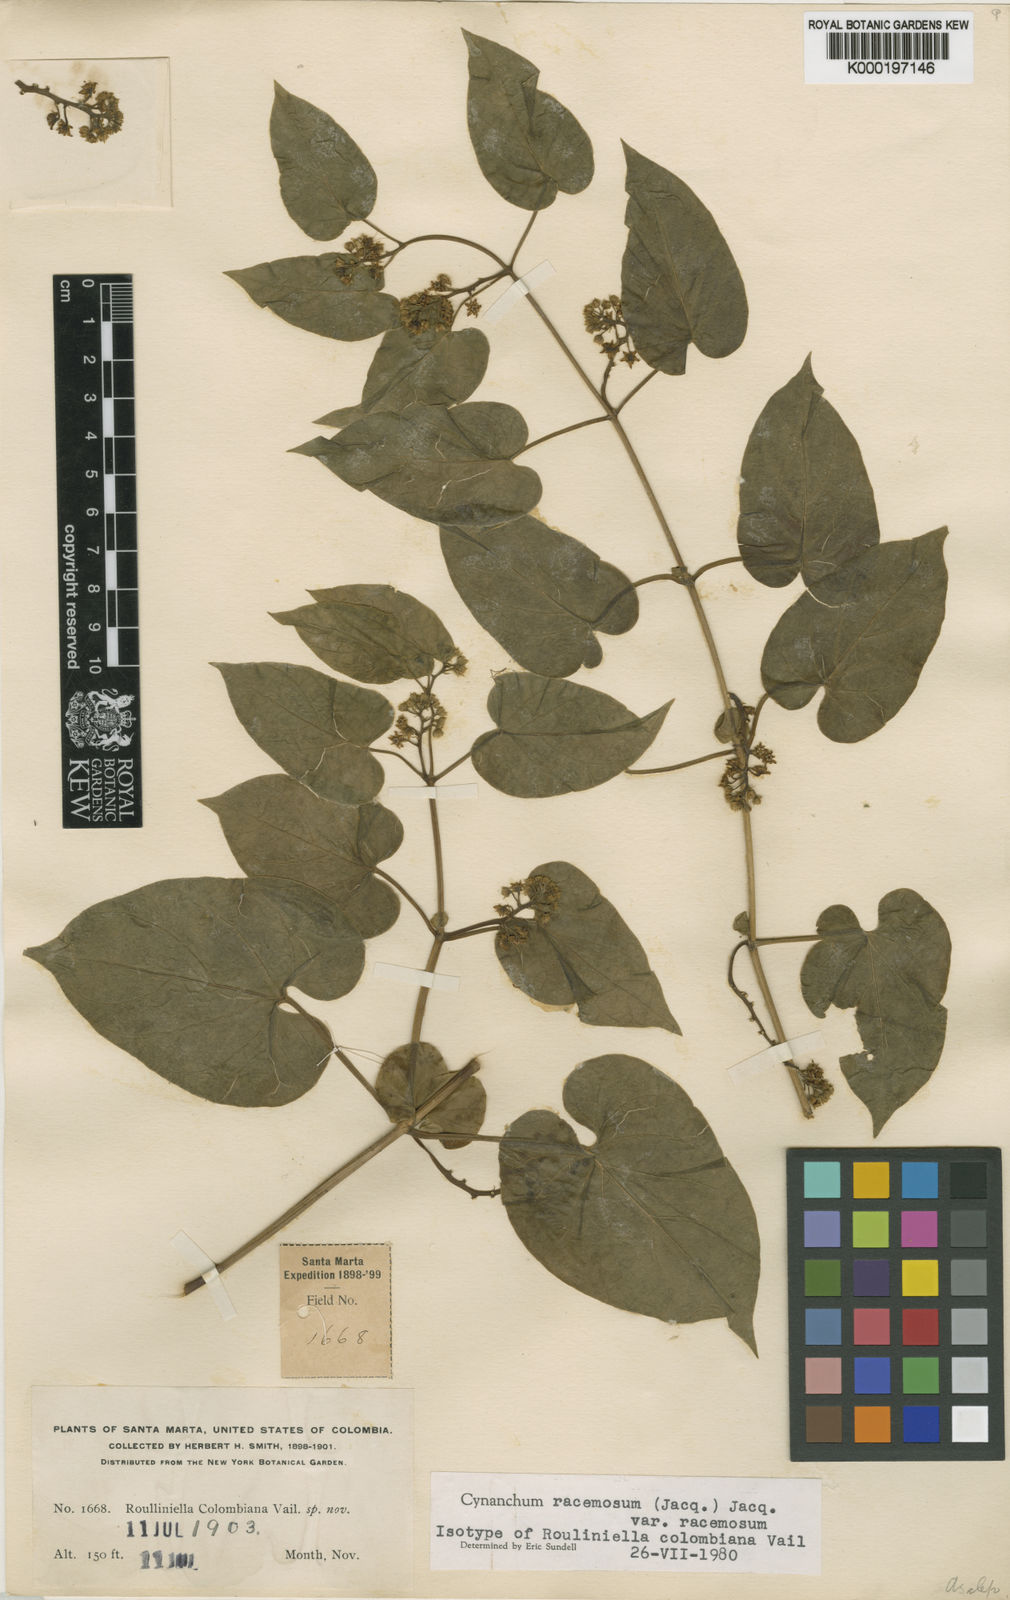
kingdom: Plantae
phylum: Tracheophyta
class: Magnoliopsida
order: Gentianales
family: Apocynaceae
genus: Cynanchum
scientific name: Cynanchum racemosum
